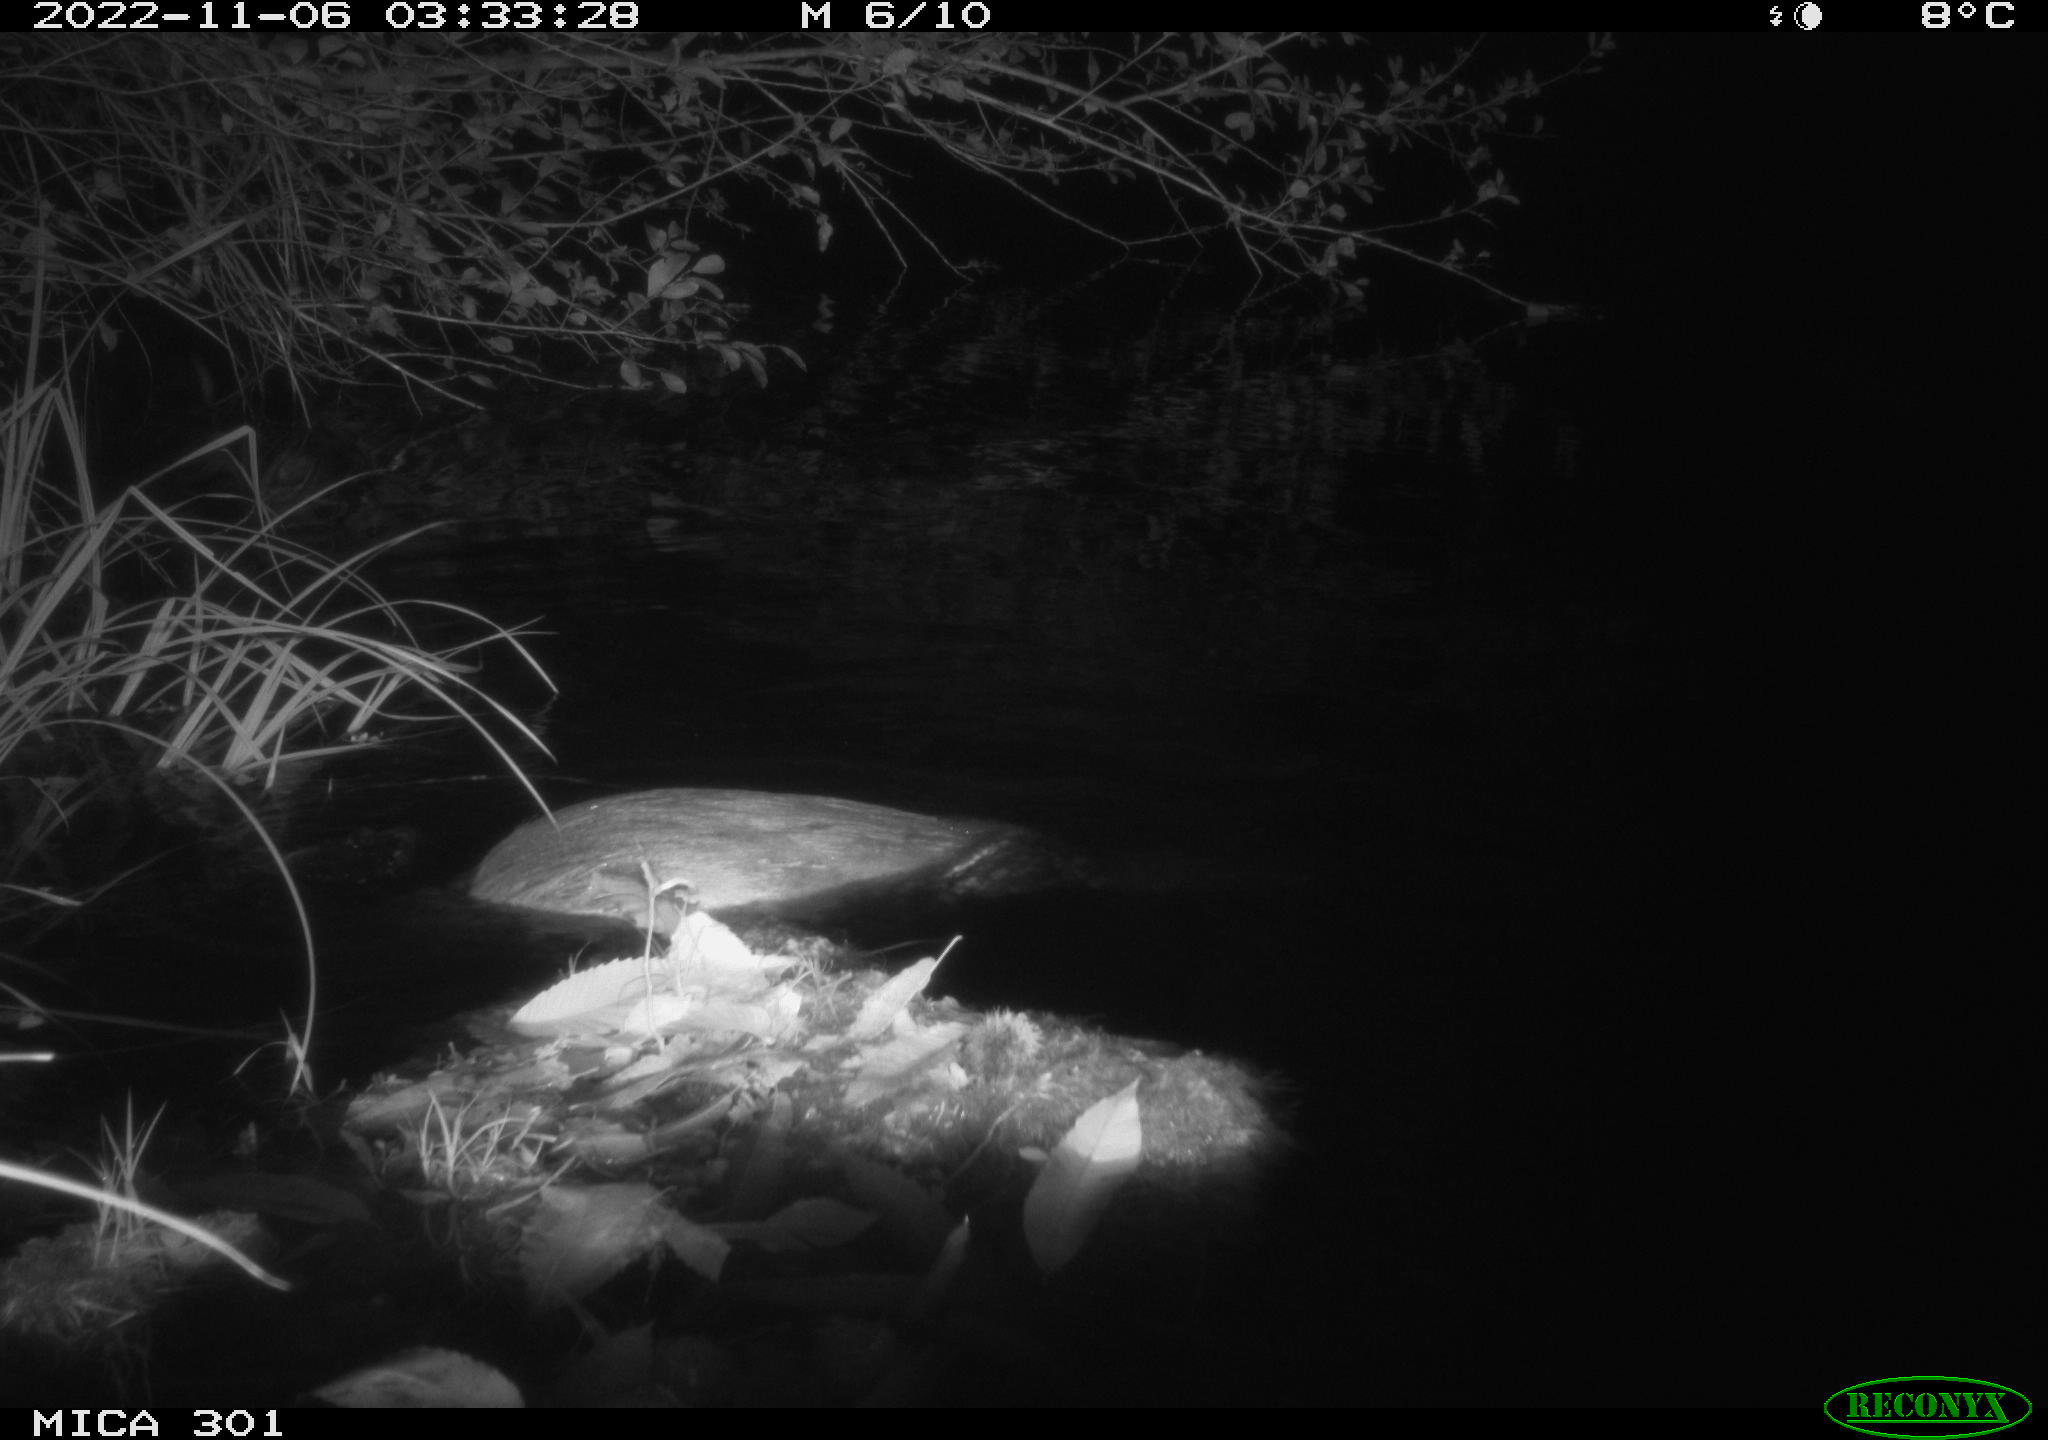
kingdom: Animalia
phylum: Chordata
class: Mammalia
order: Rodentia
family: Castoridae
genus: Castor
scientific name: Castor fiber
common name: Eurasian beaver
